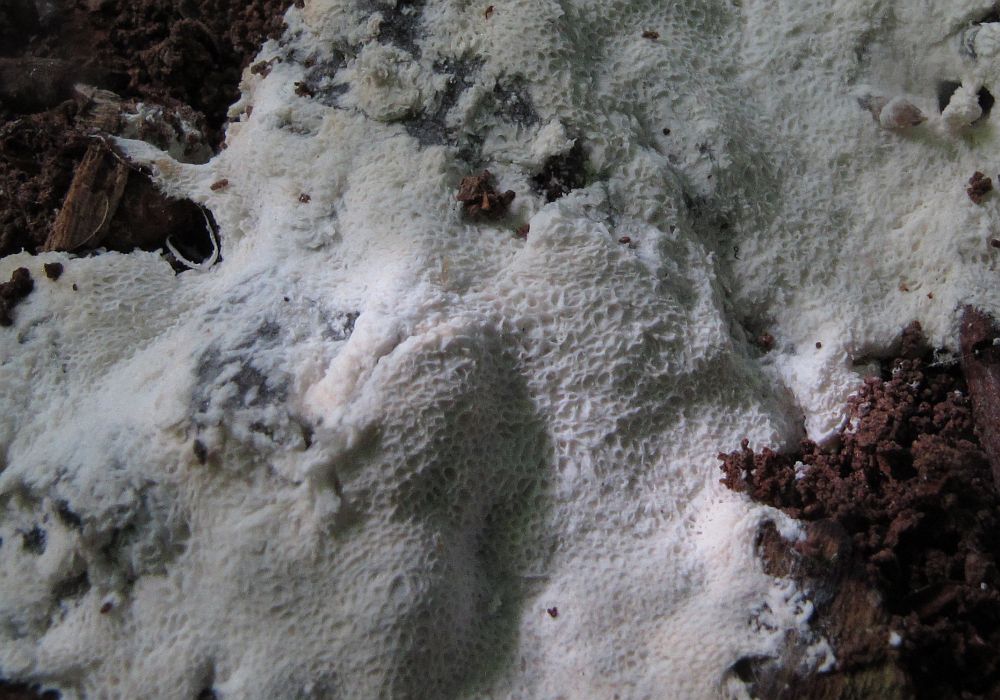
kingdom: Protozoa
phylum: Mycetozoa
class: Protosteliomycetes
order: Ceratiomyxales
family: Ceratiomyxaceae
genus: Ceratiomyxa
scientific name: Ceratiomyxa fruticulosa
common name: Honeycomb coral slime mold
